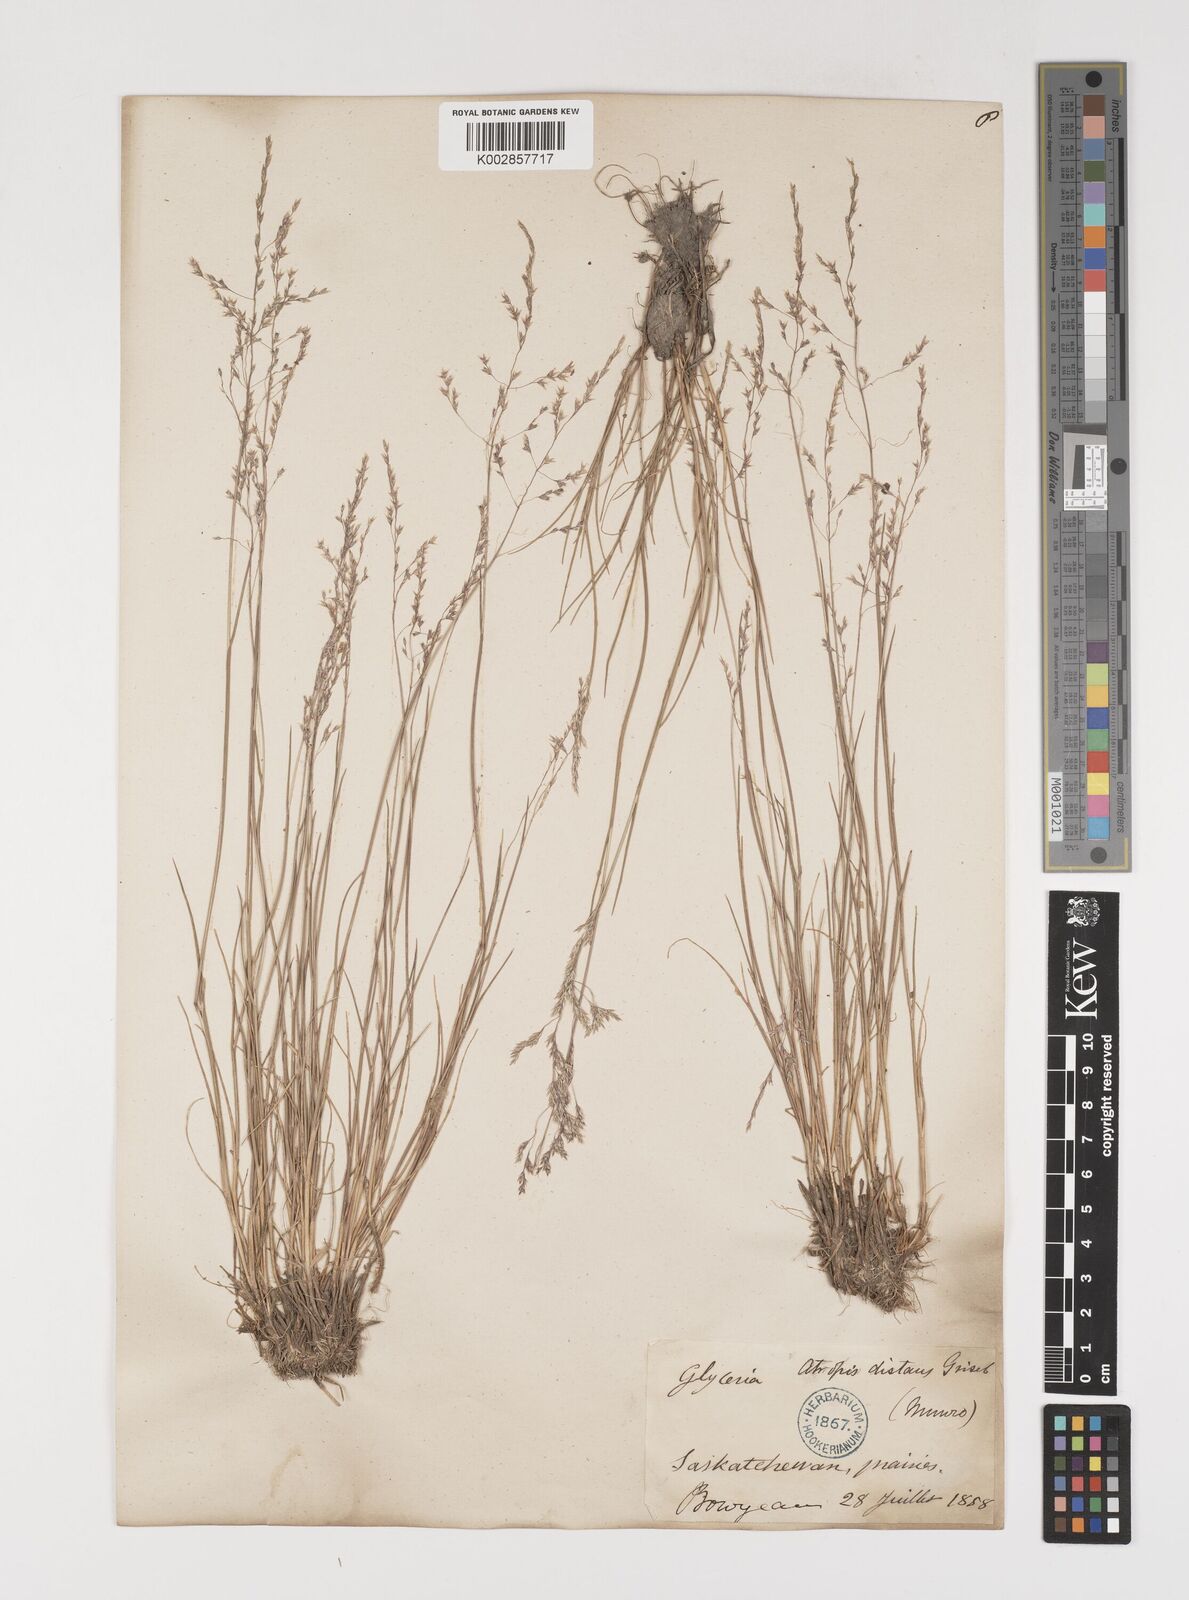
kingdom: Plantae
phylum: Tracheophyta
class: Liliopsida
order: Poales
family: Poaceae
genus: Puccinellia
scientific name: Puccinellia nuttalliana
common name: Nuttall's alkali grass
